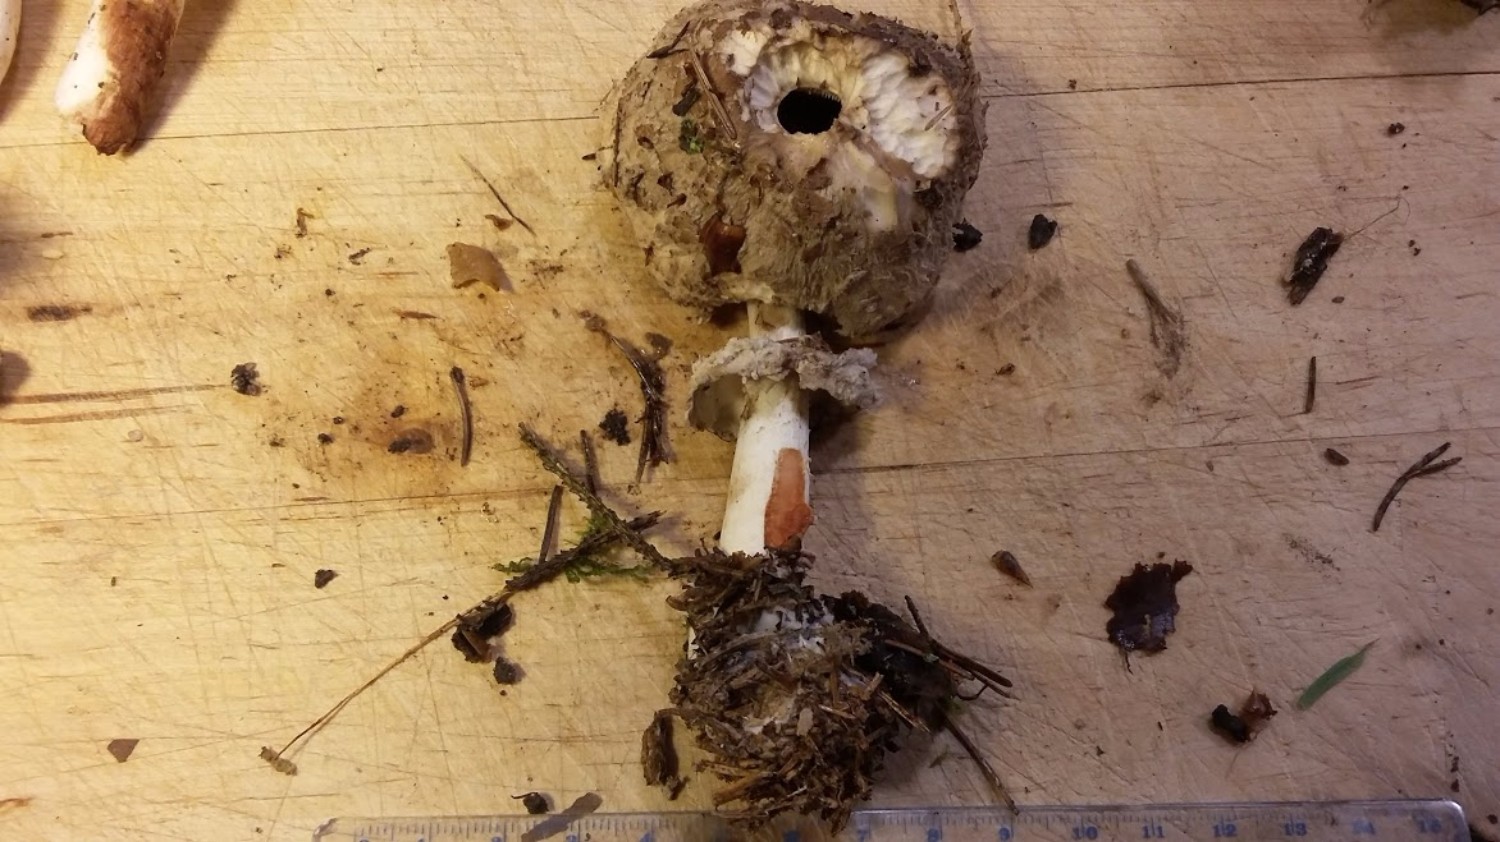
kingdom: Fungi
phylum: Basidiomycota
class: Agaricomycetes
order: Agaricales
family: Agaricaceae
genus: Chlorophyllum
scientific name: Chlorophyllum
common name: rabarberhat
